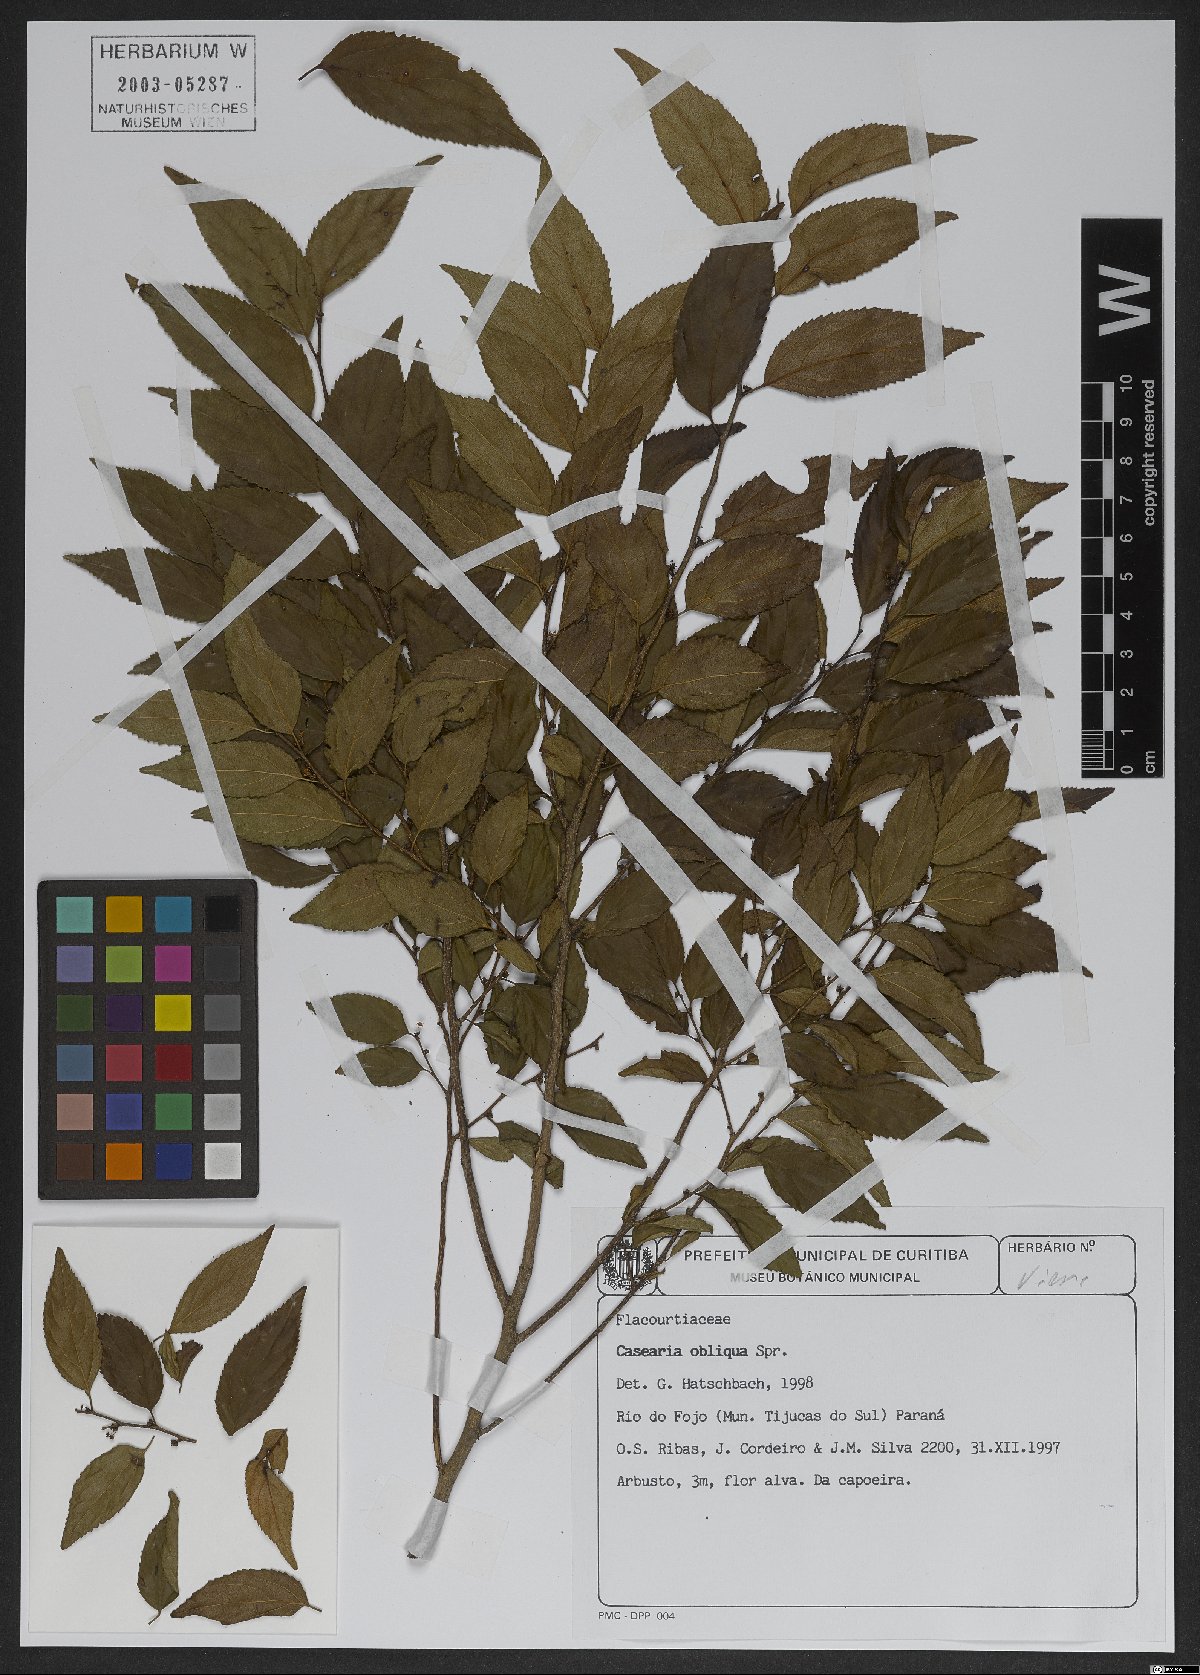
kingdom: Plantae
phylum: Tracheophyta
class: Magnoliopsida
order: Malpighiales
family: Salicaceae
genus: Casearia
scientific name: Casearia obliqua
